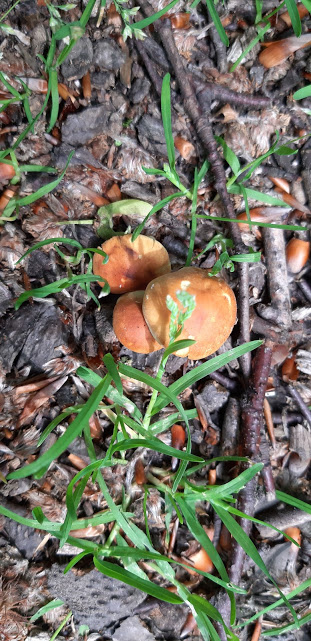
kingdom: Fungi
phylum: Basidiomycota
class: Agaricomycetes
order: Agaricales
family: Strophariaceae
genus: Hypholoma
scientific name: Hypholoma fasciculare
